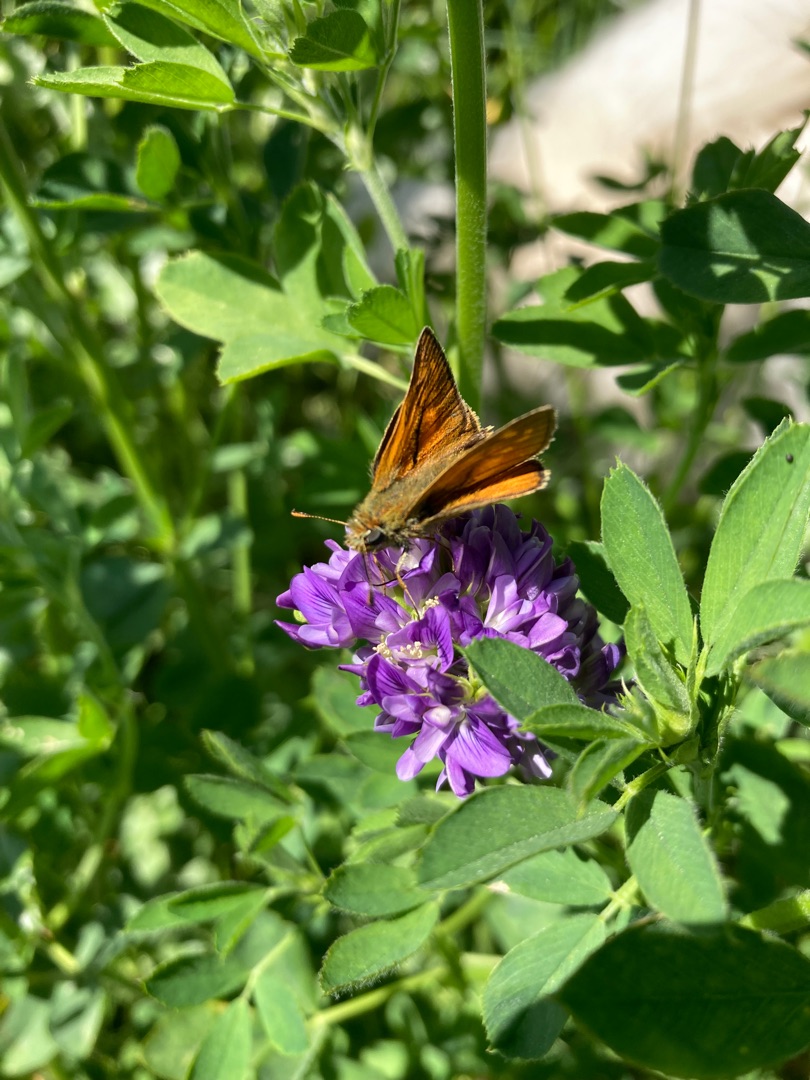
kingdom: Animalia
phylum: Arthropoda
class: Insecta
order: Lepidoptera
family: Hesperiidae
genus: Ochlodes
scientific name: Ochlodes venata
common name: Stor bredpande
